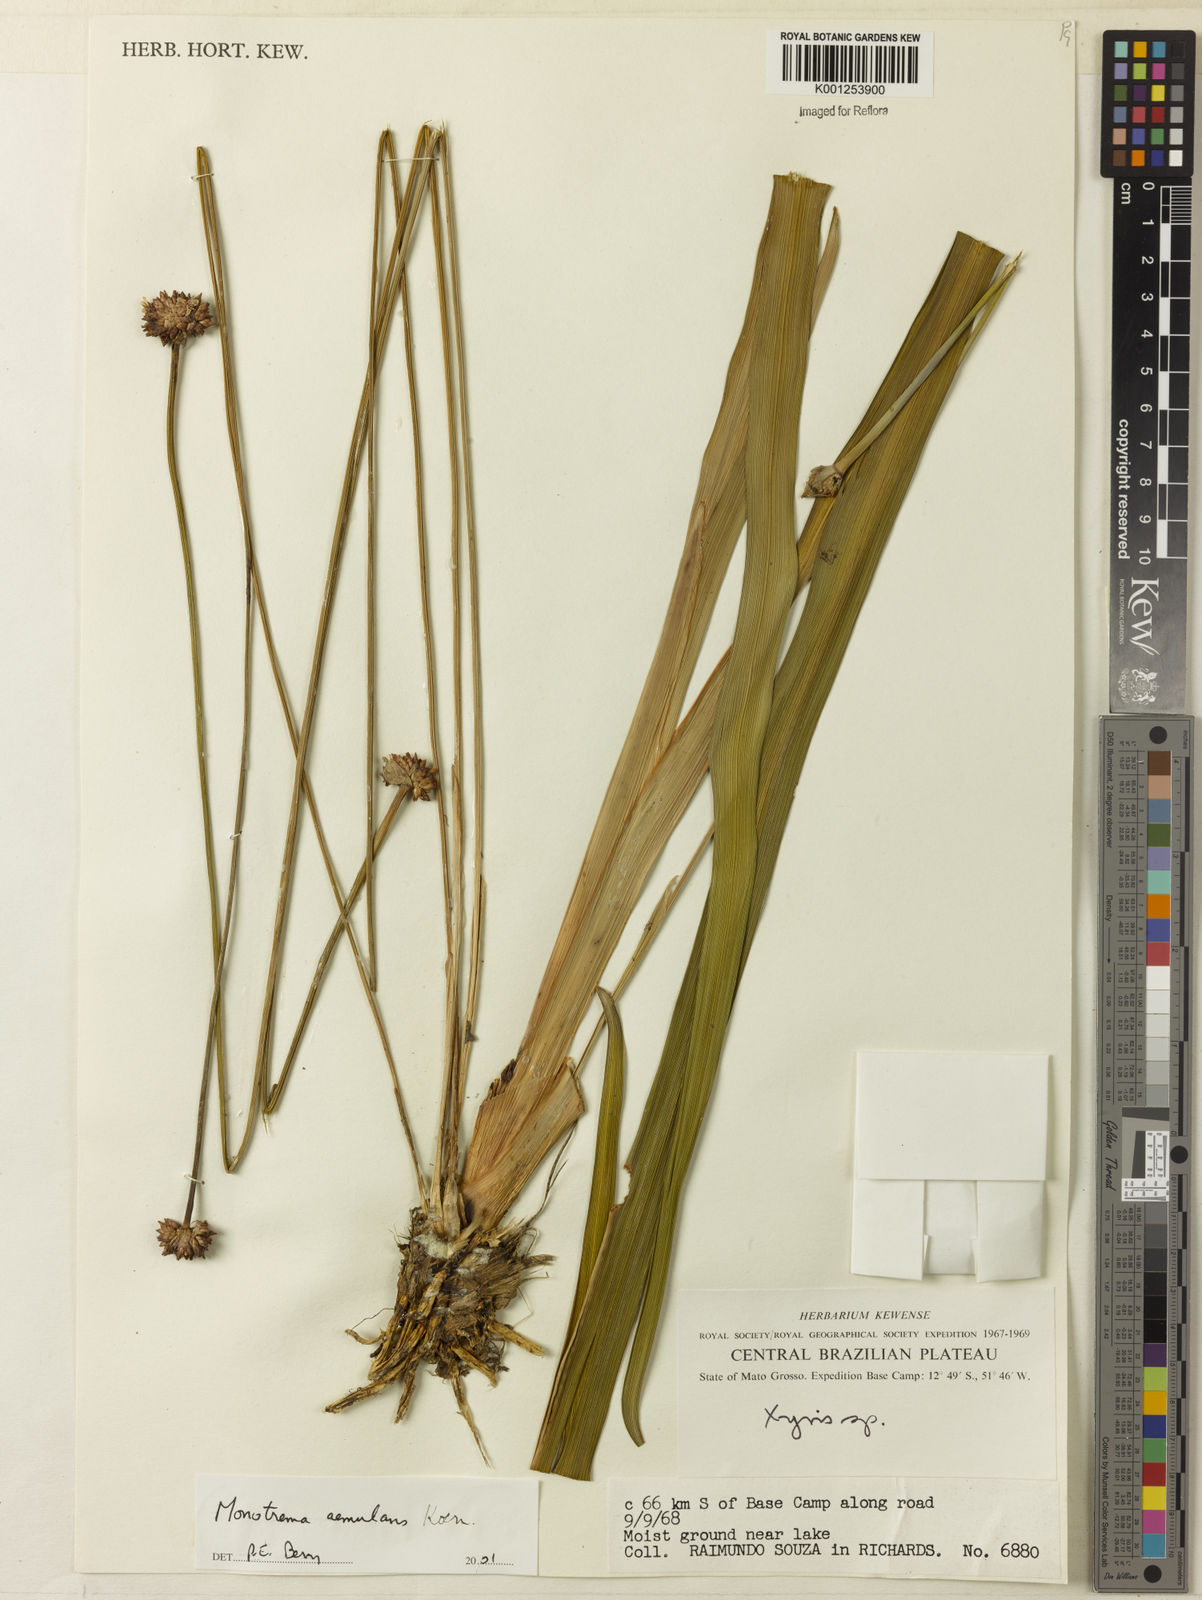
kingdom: Plantae
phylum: Tracheophyta
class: Liliopsida
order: Poales
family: Rapateaceae
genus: Monotrema
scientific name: Monotrema aemulans
